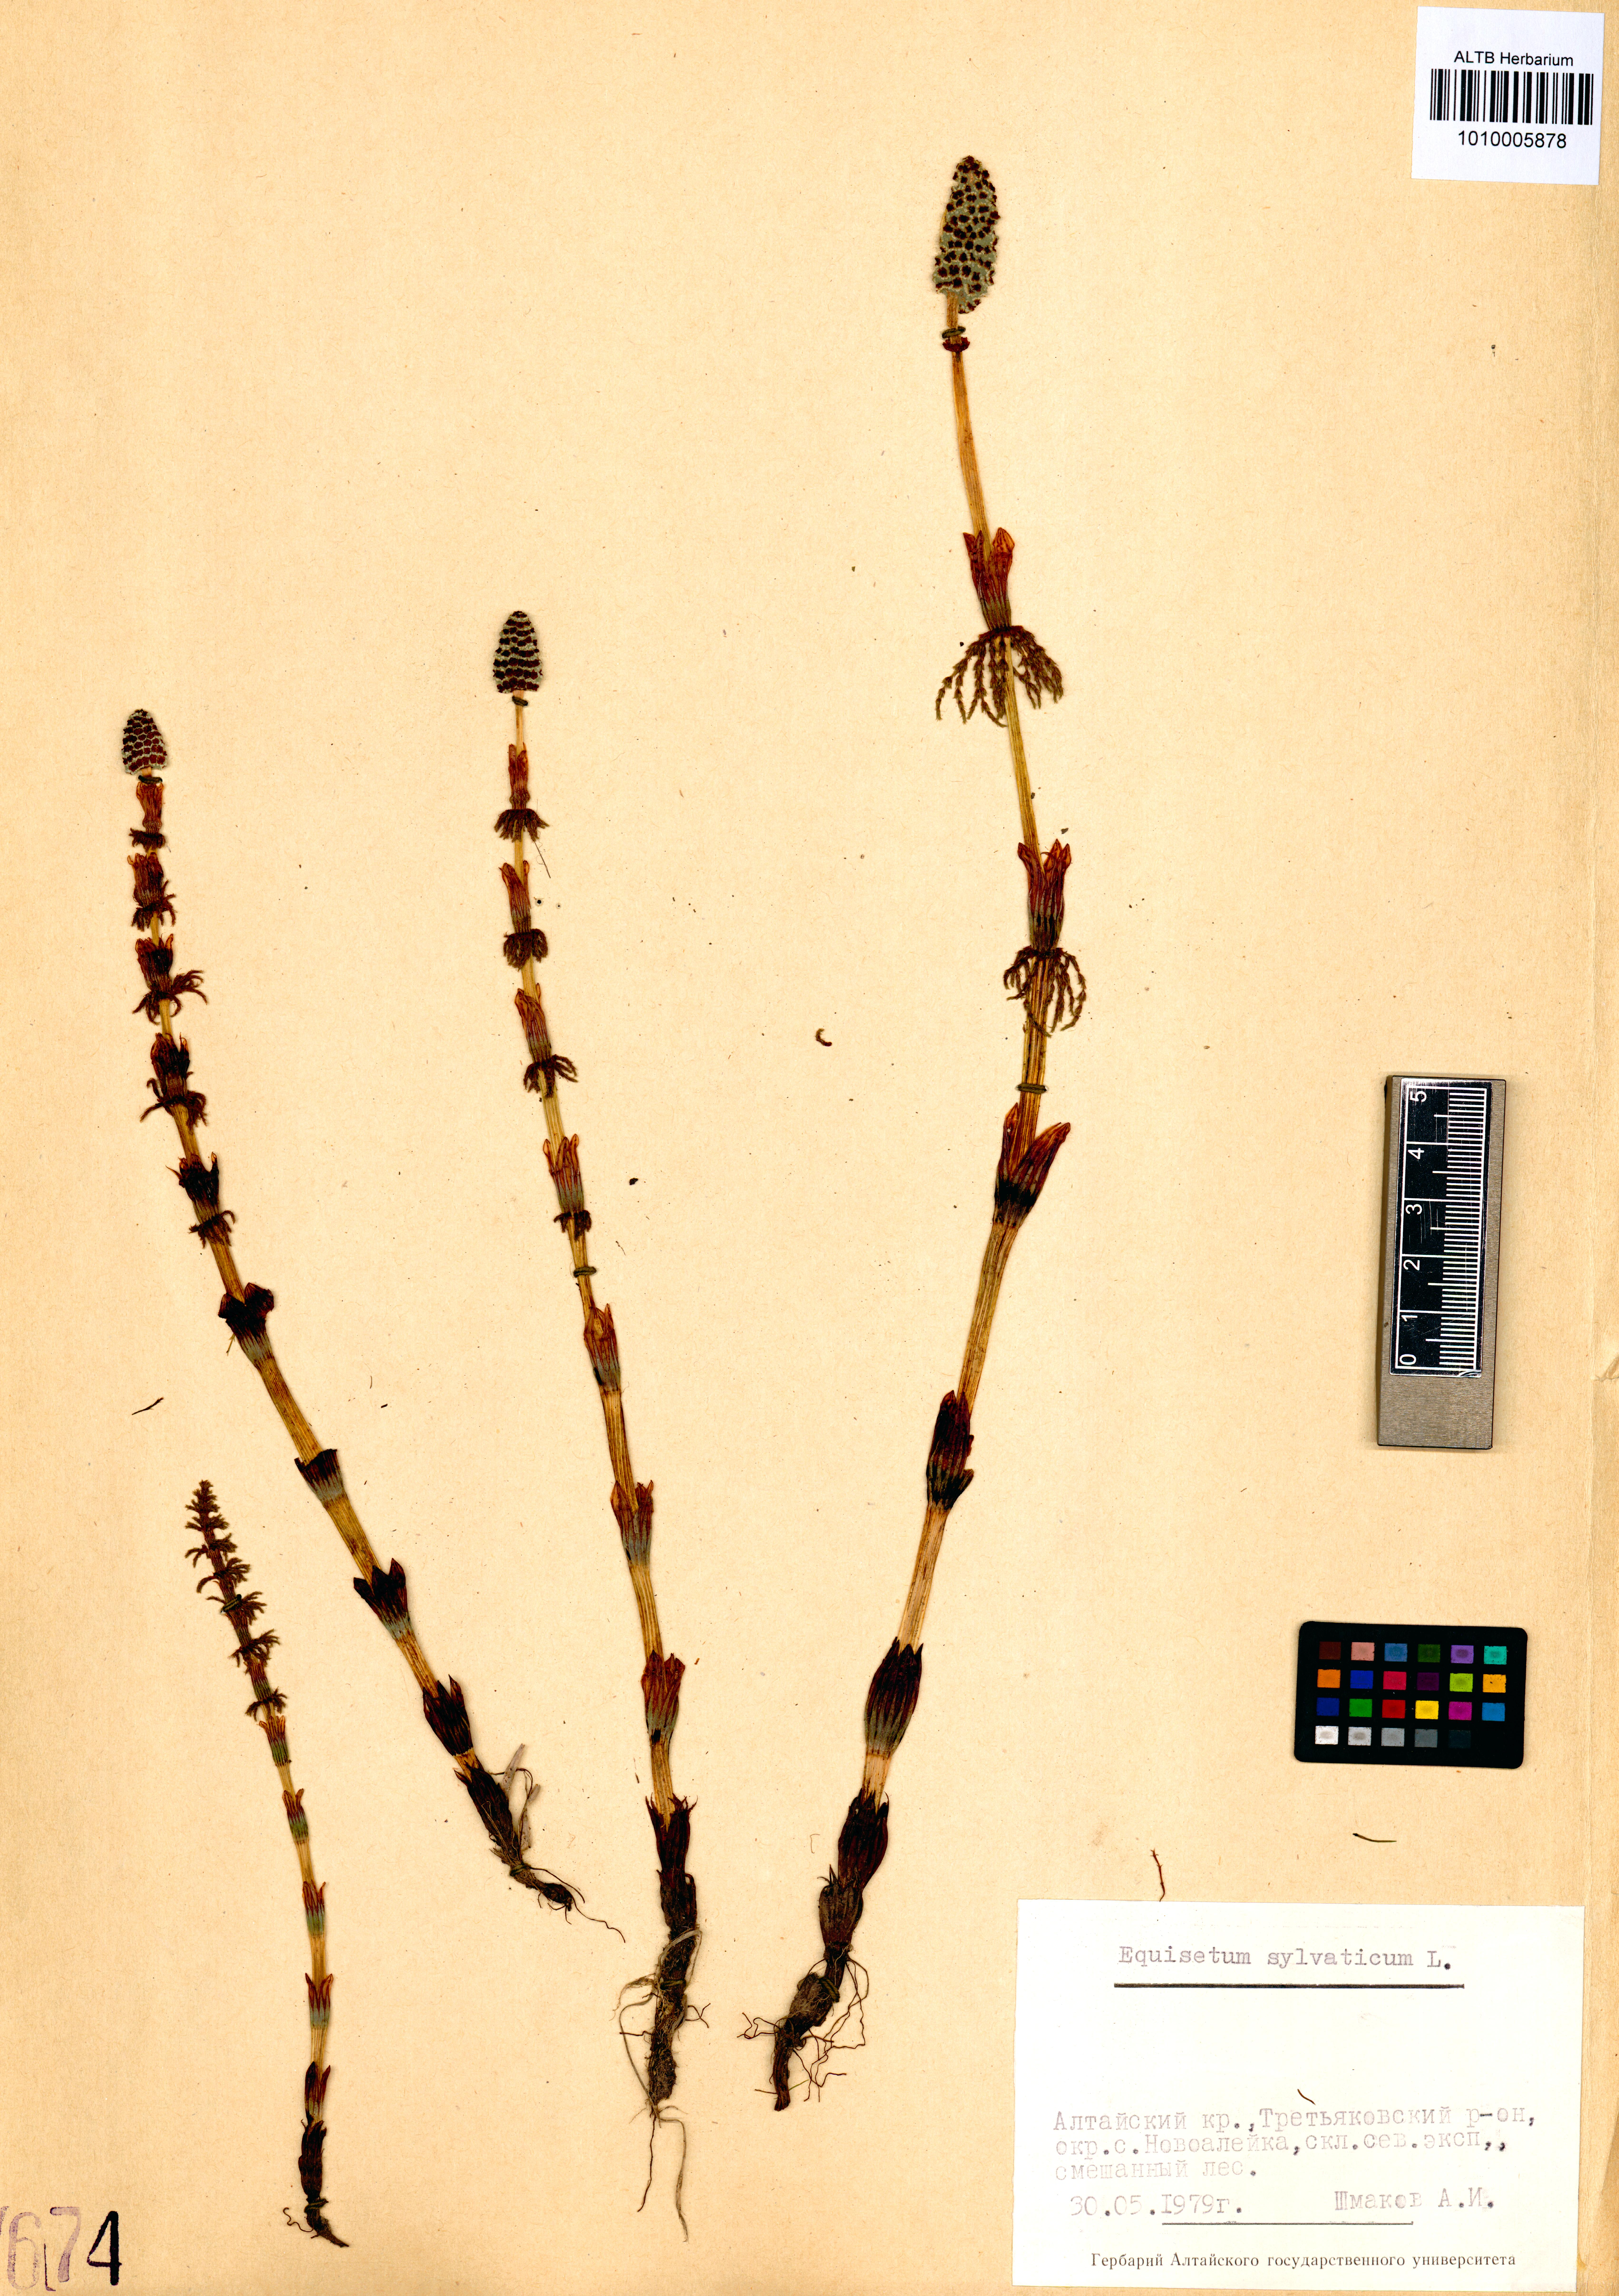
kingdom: Plantae
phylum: Tracheophyta
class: Polypodiopsida
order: Equisetales
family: Equisetaceae
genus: Equisetum
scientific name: Equisetum sylvaticum
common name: Wood horsetail
